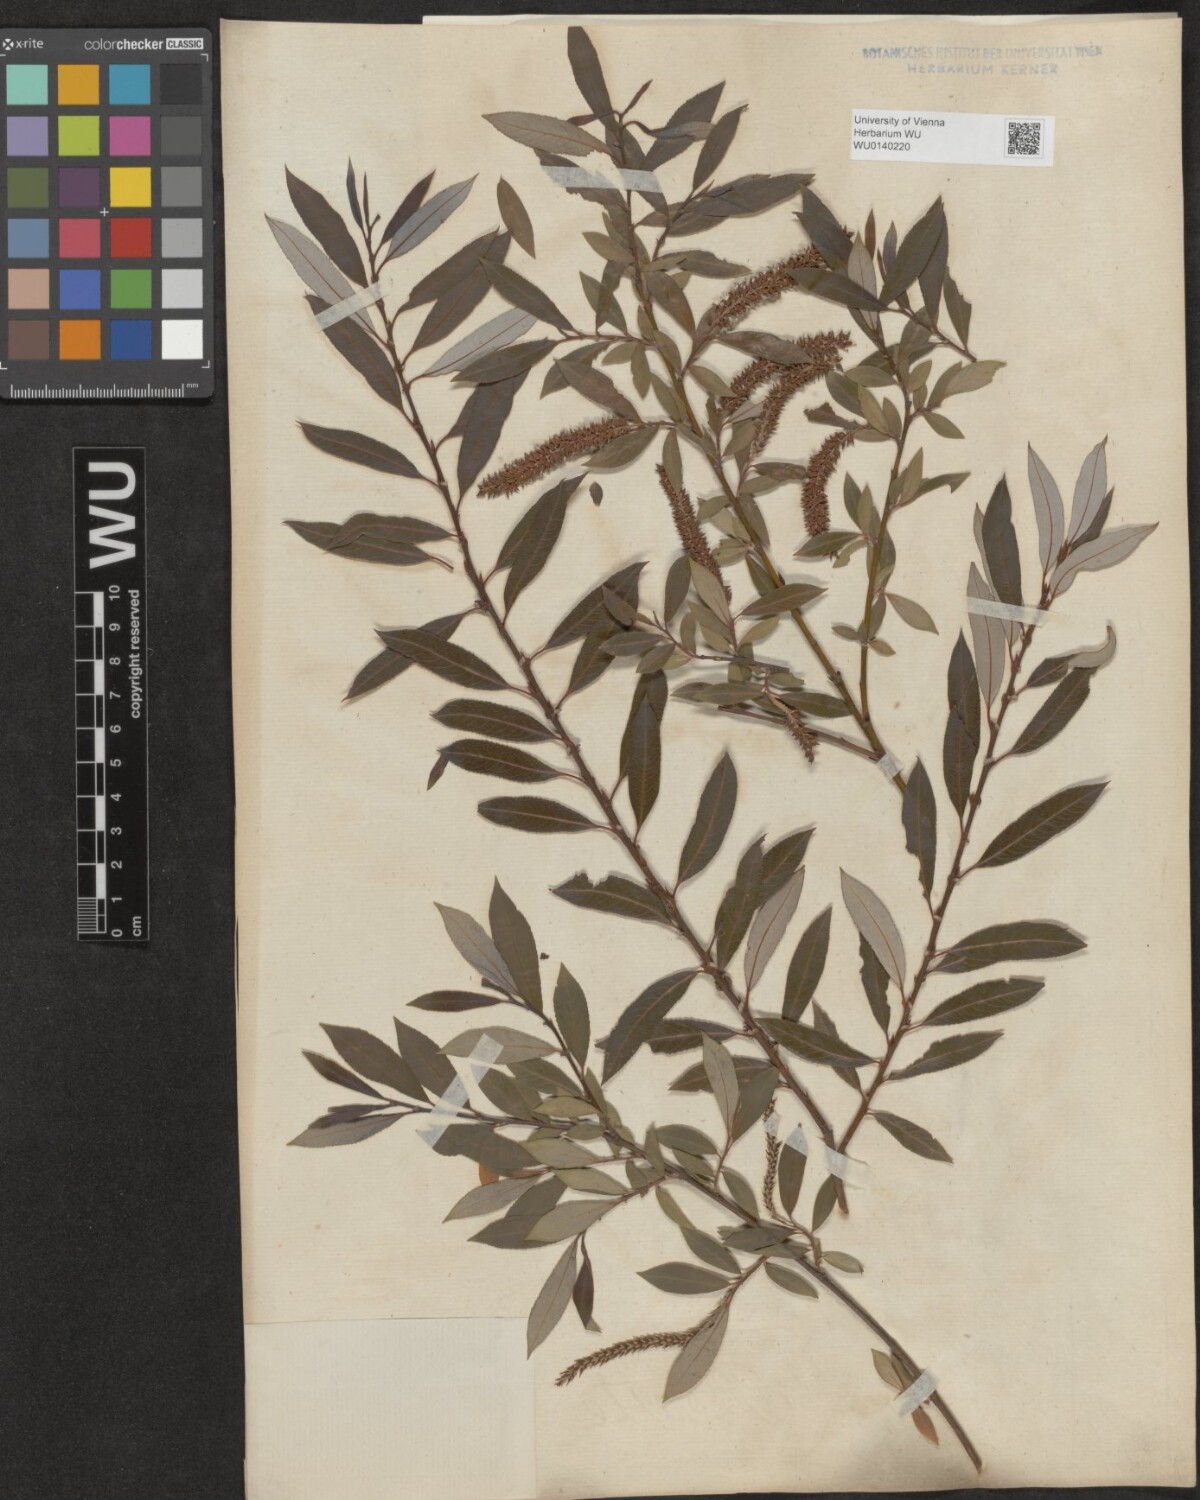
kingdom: Plantae
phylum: Tracheophyta
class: Magnoliopsida
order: Malpighiales
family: Salicaceae
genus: Salix
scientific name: Salix triandra
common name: Almond willow
